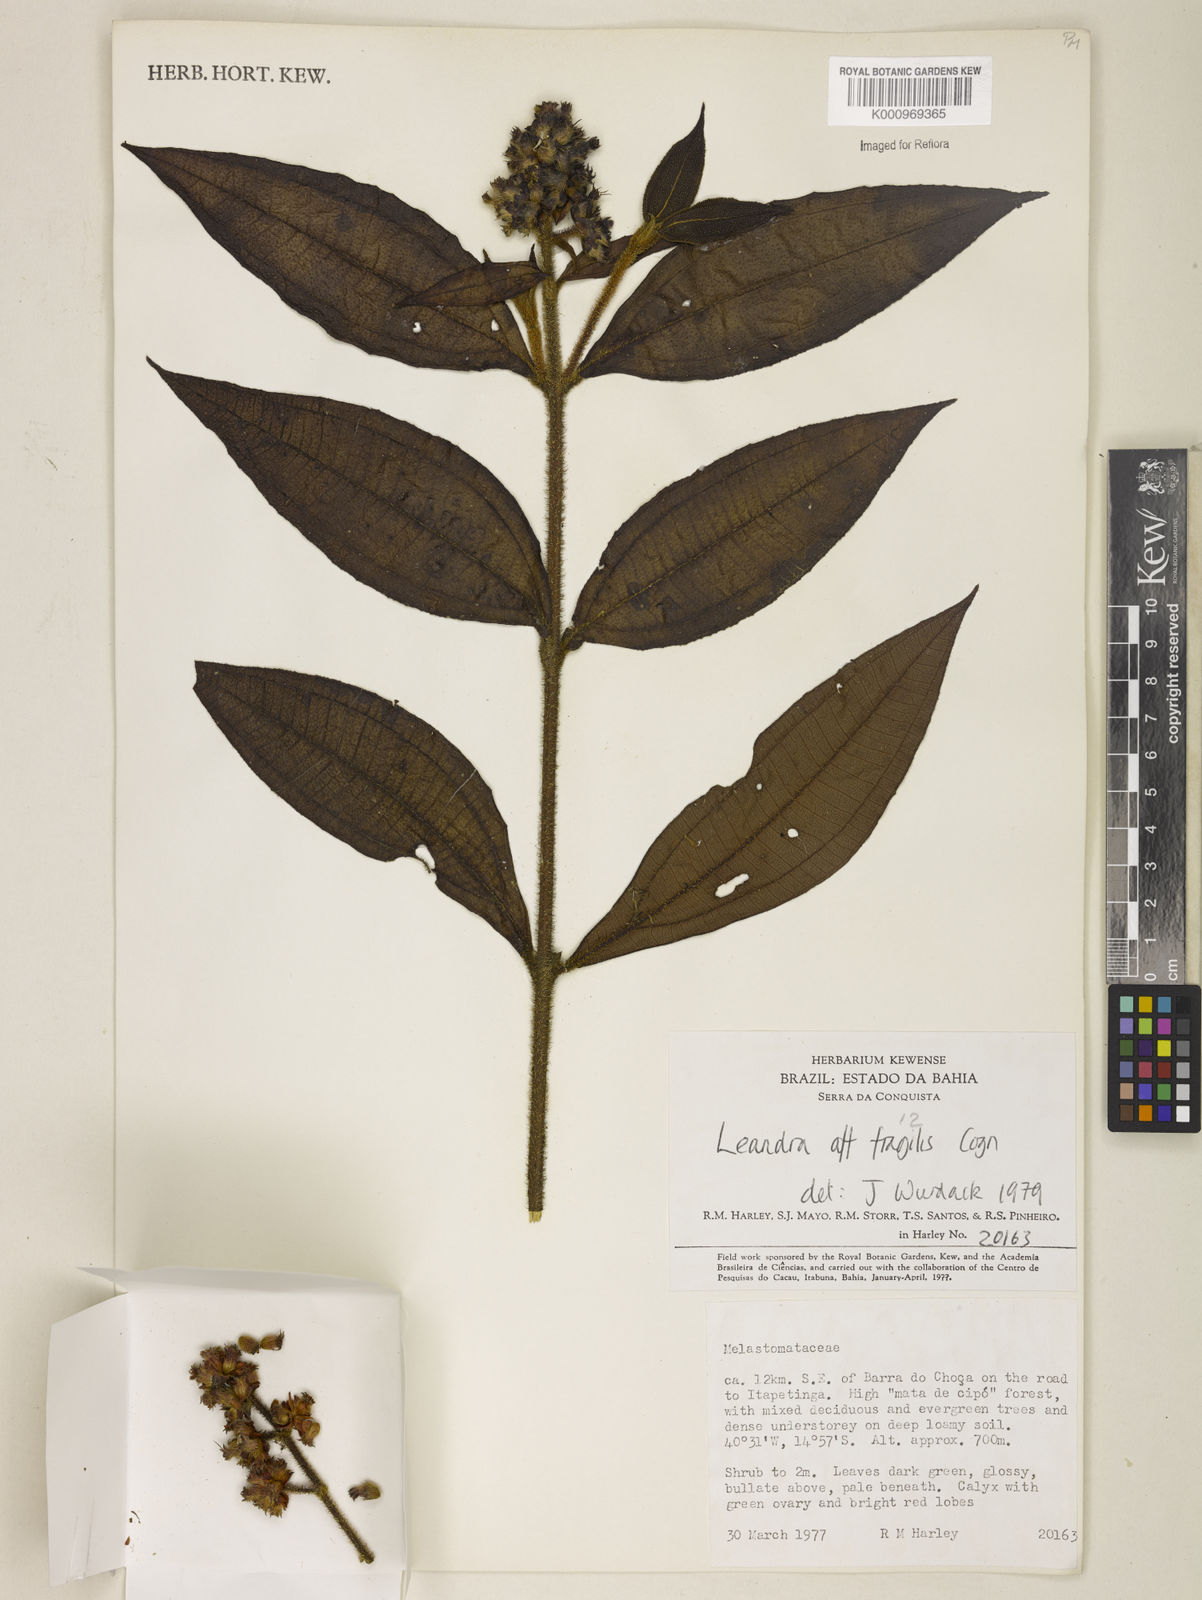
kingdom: Plantae
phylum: Tracheophyta
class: Magnoliopsida
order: Myrtales
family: Melastomataceae
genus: Miconia
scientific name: Miconia melastomoides
